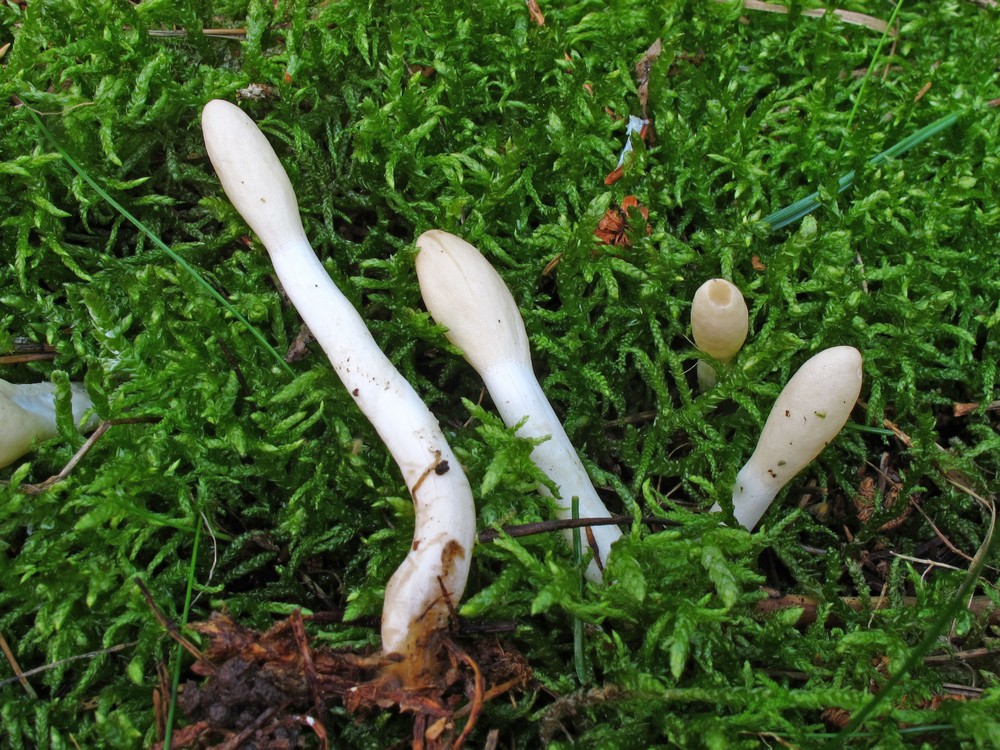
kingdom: Fungi
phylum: Ascomycota
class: Sordariomycetes
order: Hypocreales
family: Hypocreaceae
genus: Trichoderma
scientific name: Trichoderma leucopus
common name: lysstokket kødkerne
